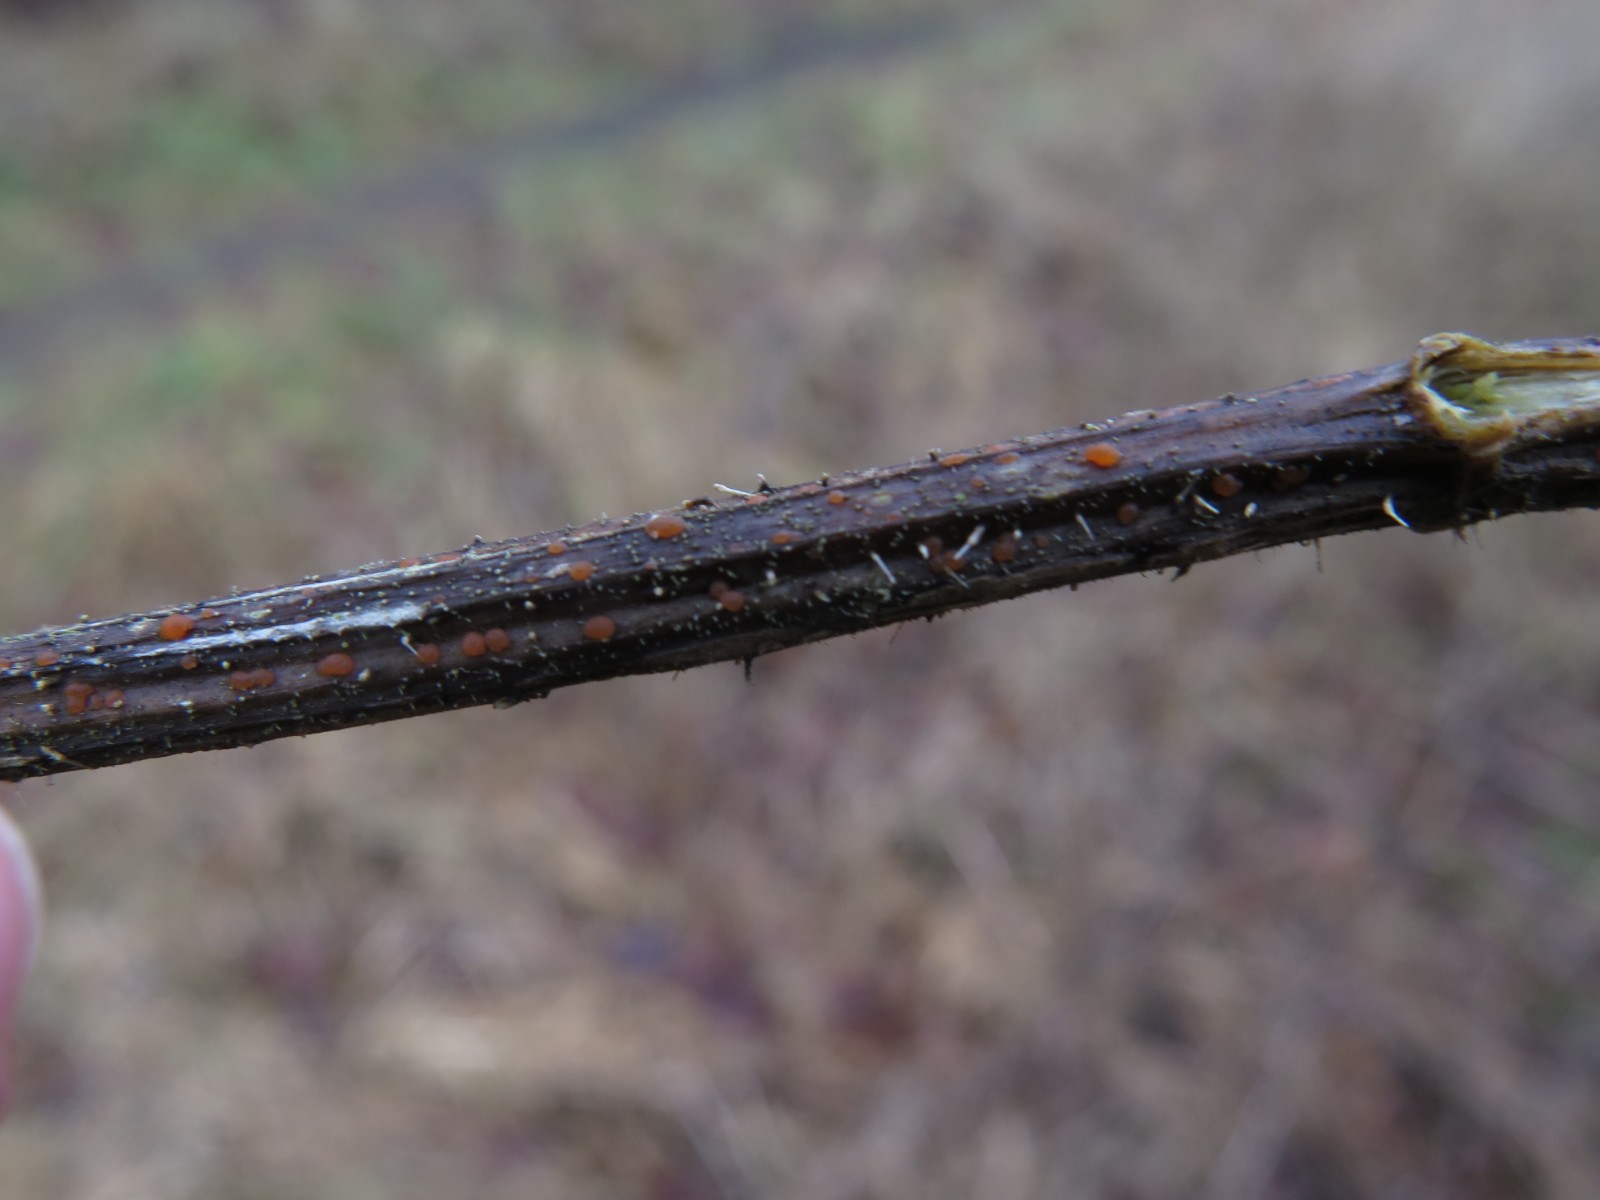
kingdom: Fungi
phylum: Ascomycota
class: Leotiomycetes
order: Helotiales
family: Calloriaceae
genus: Calloria
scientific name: Calloria urticae
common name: nælde-orangeskive
